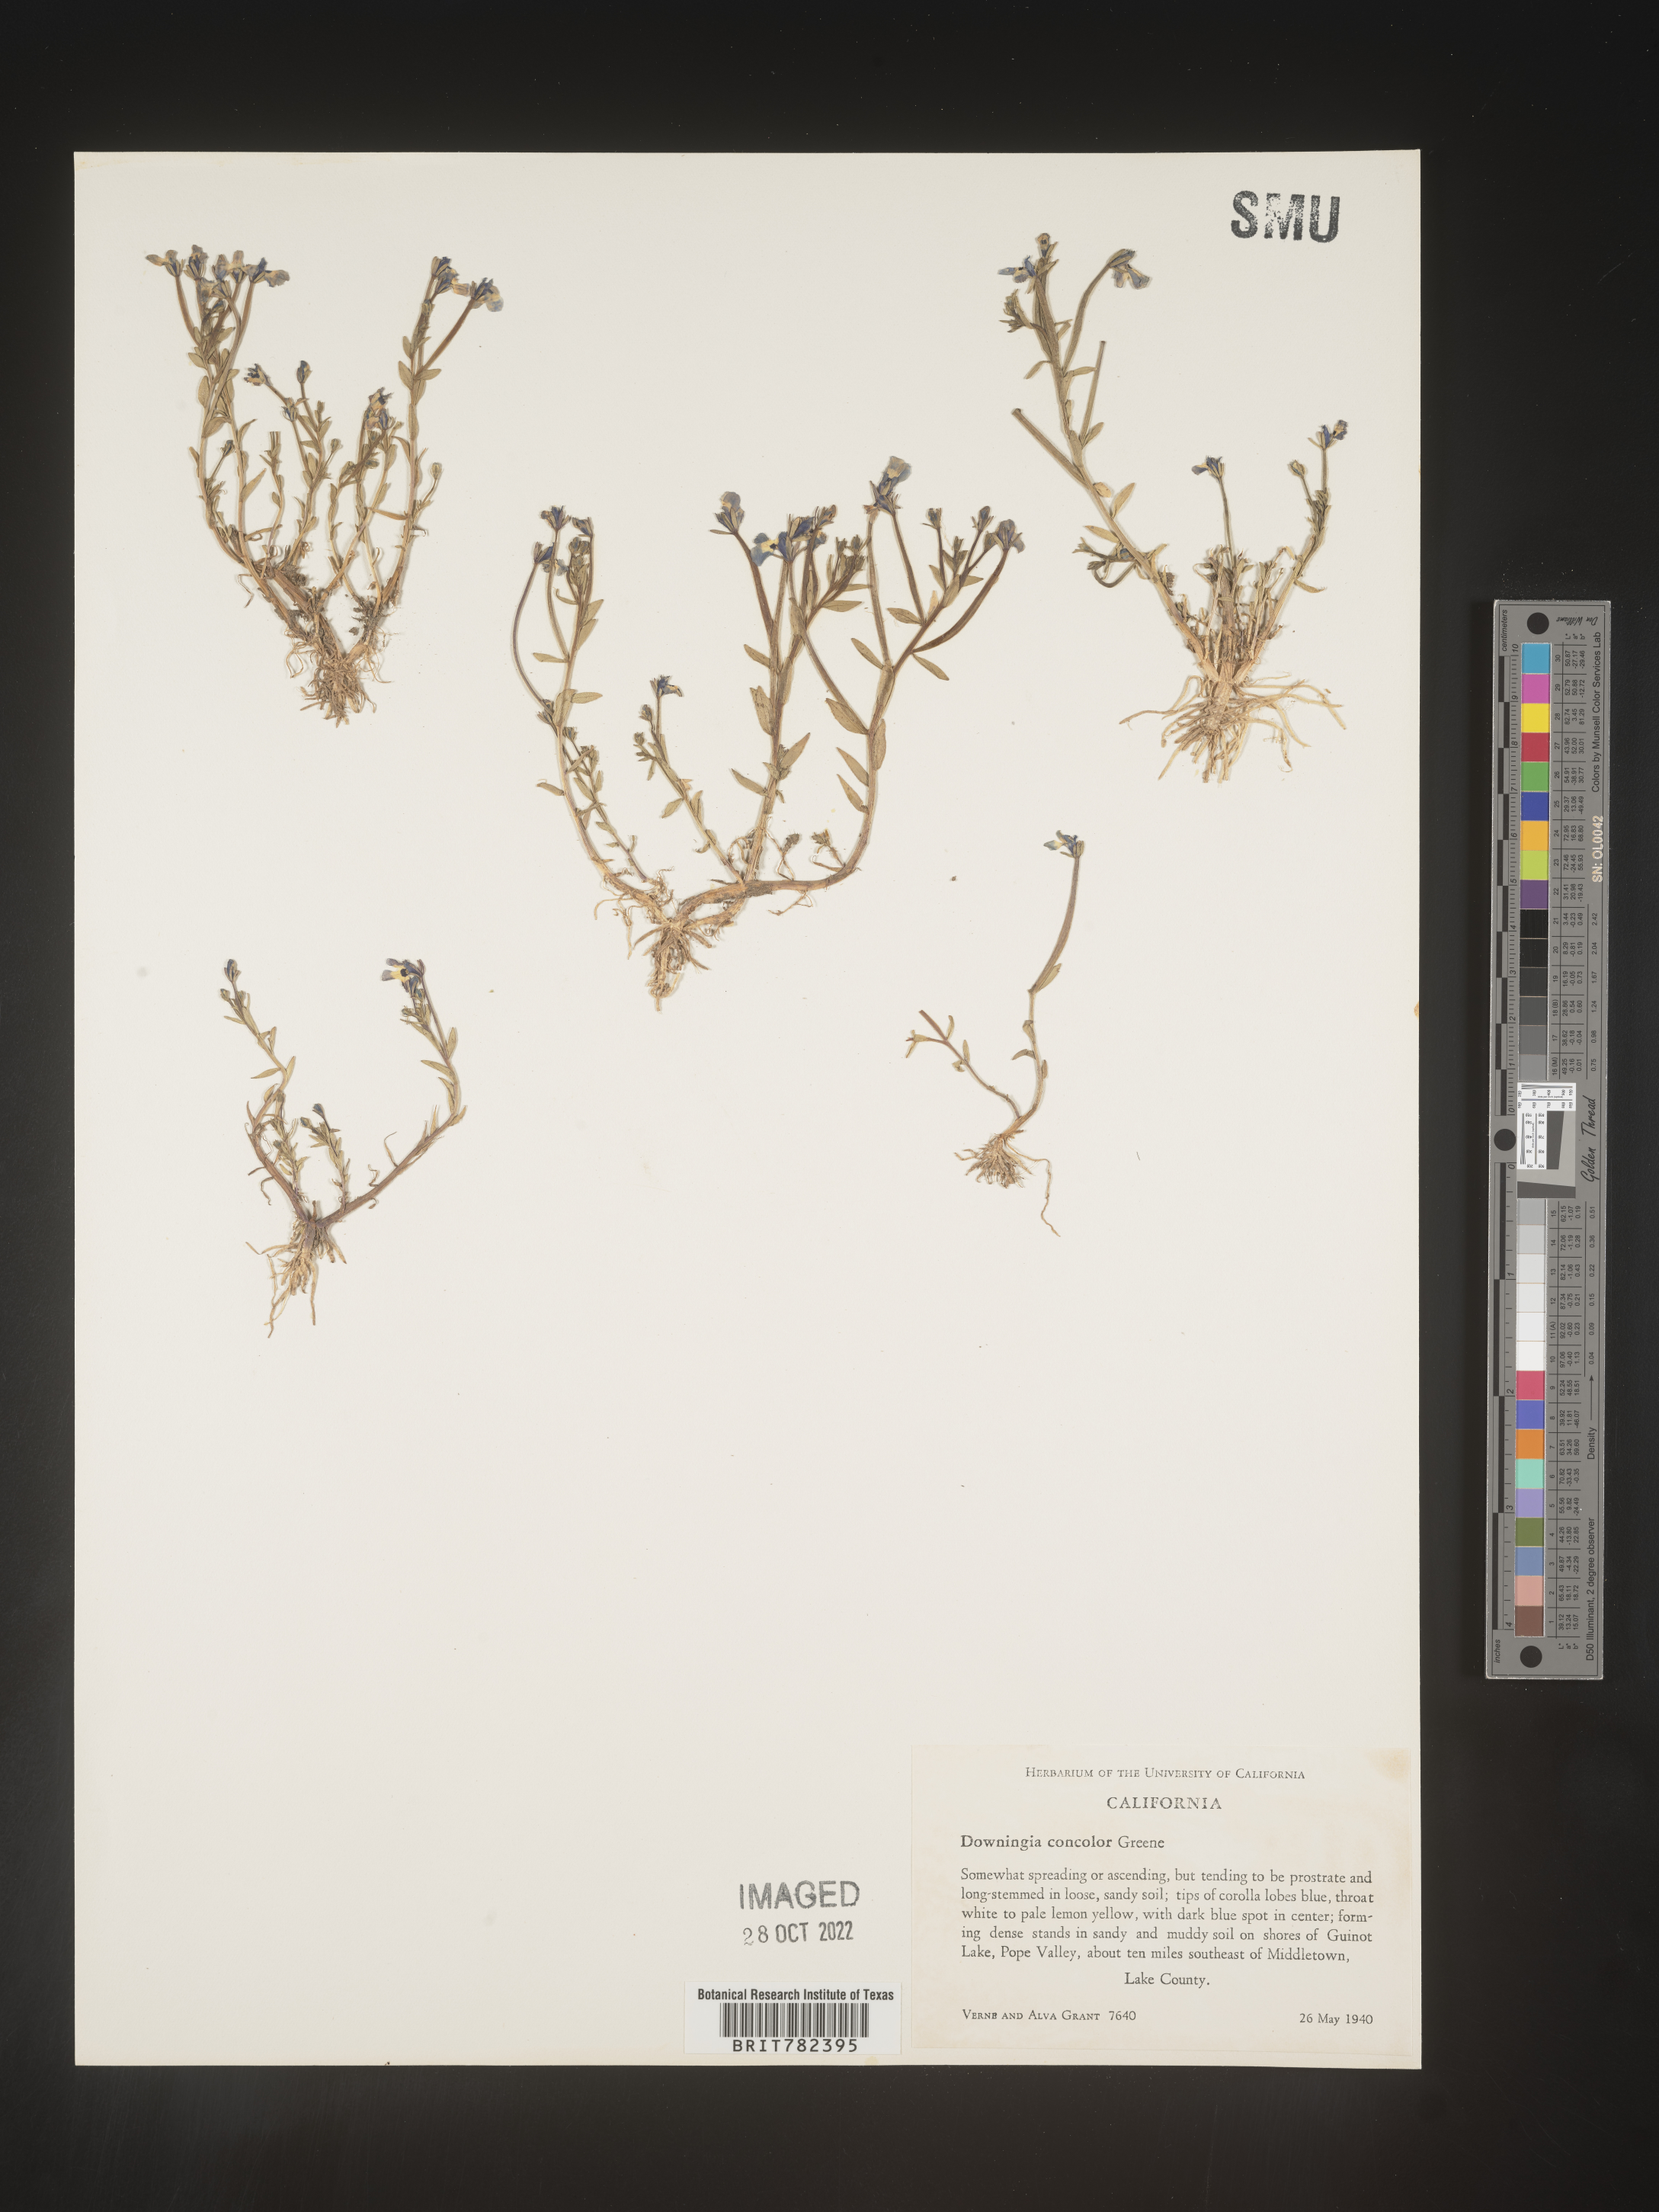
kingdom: Plantae
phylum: Tracheophyta
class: Magnoliopsida
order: Asterales
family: Campanulaceae
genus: Downingia
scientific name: Downingia
